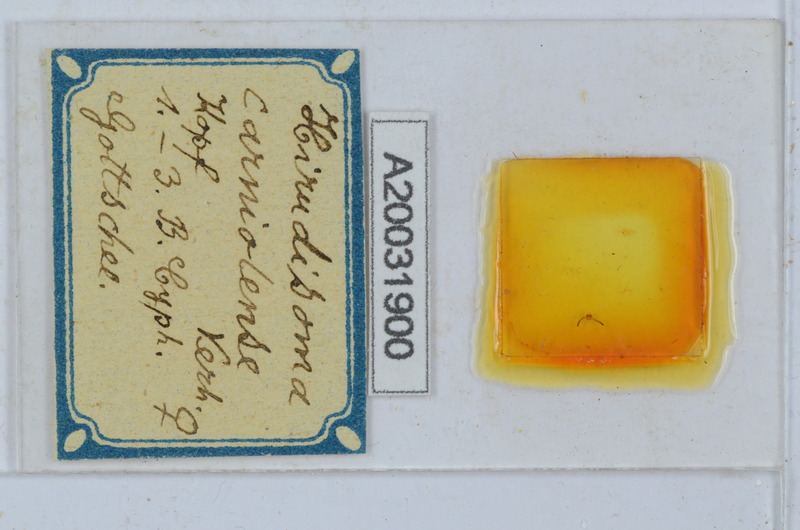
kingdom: Animalia
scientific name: Animalia
